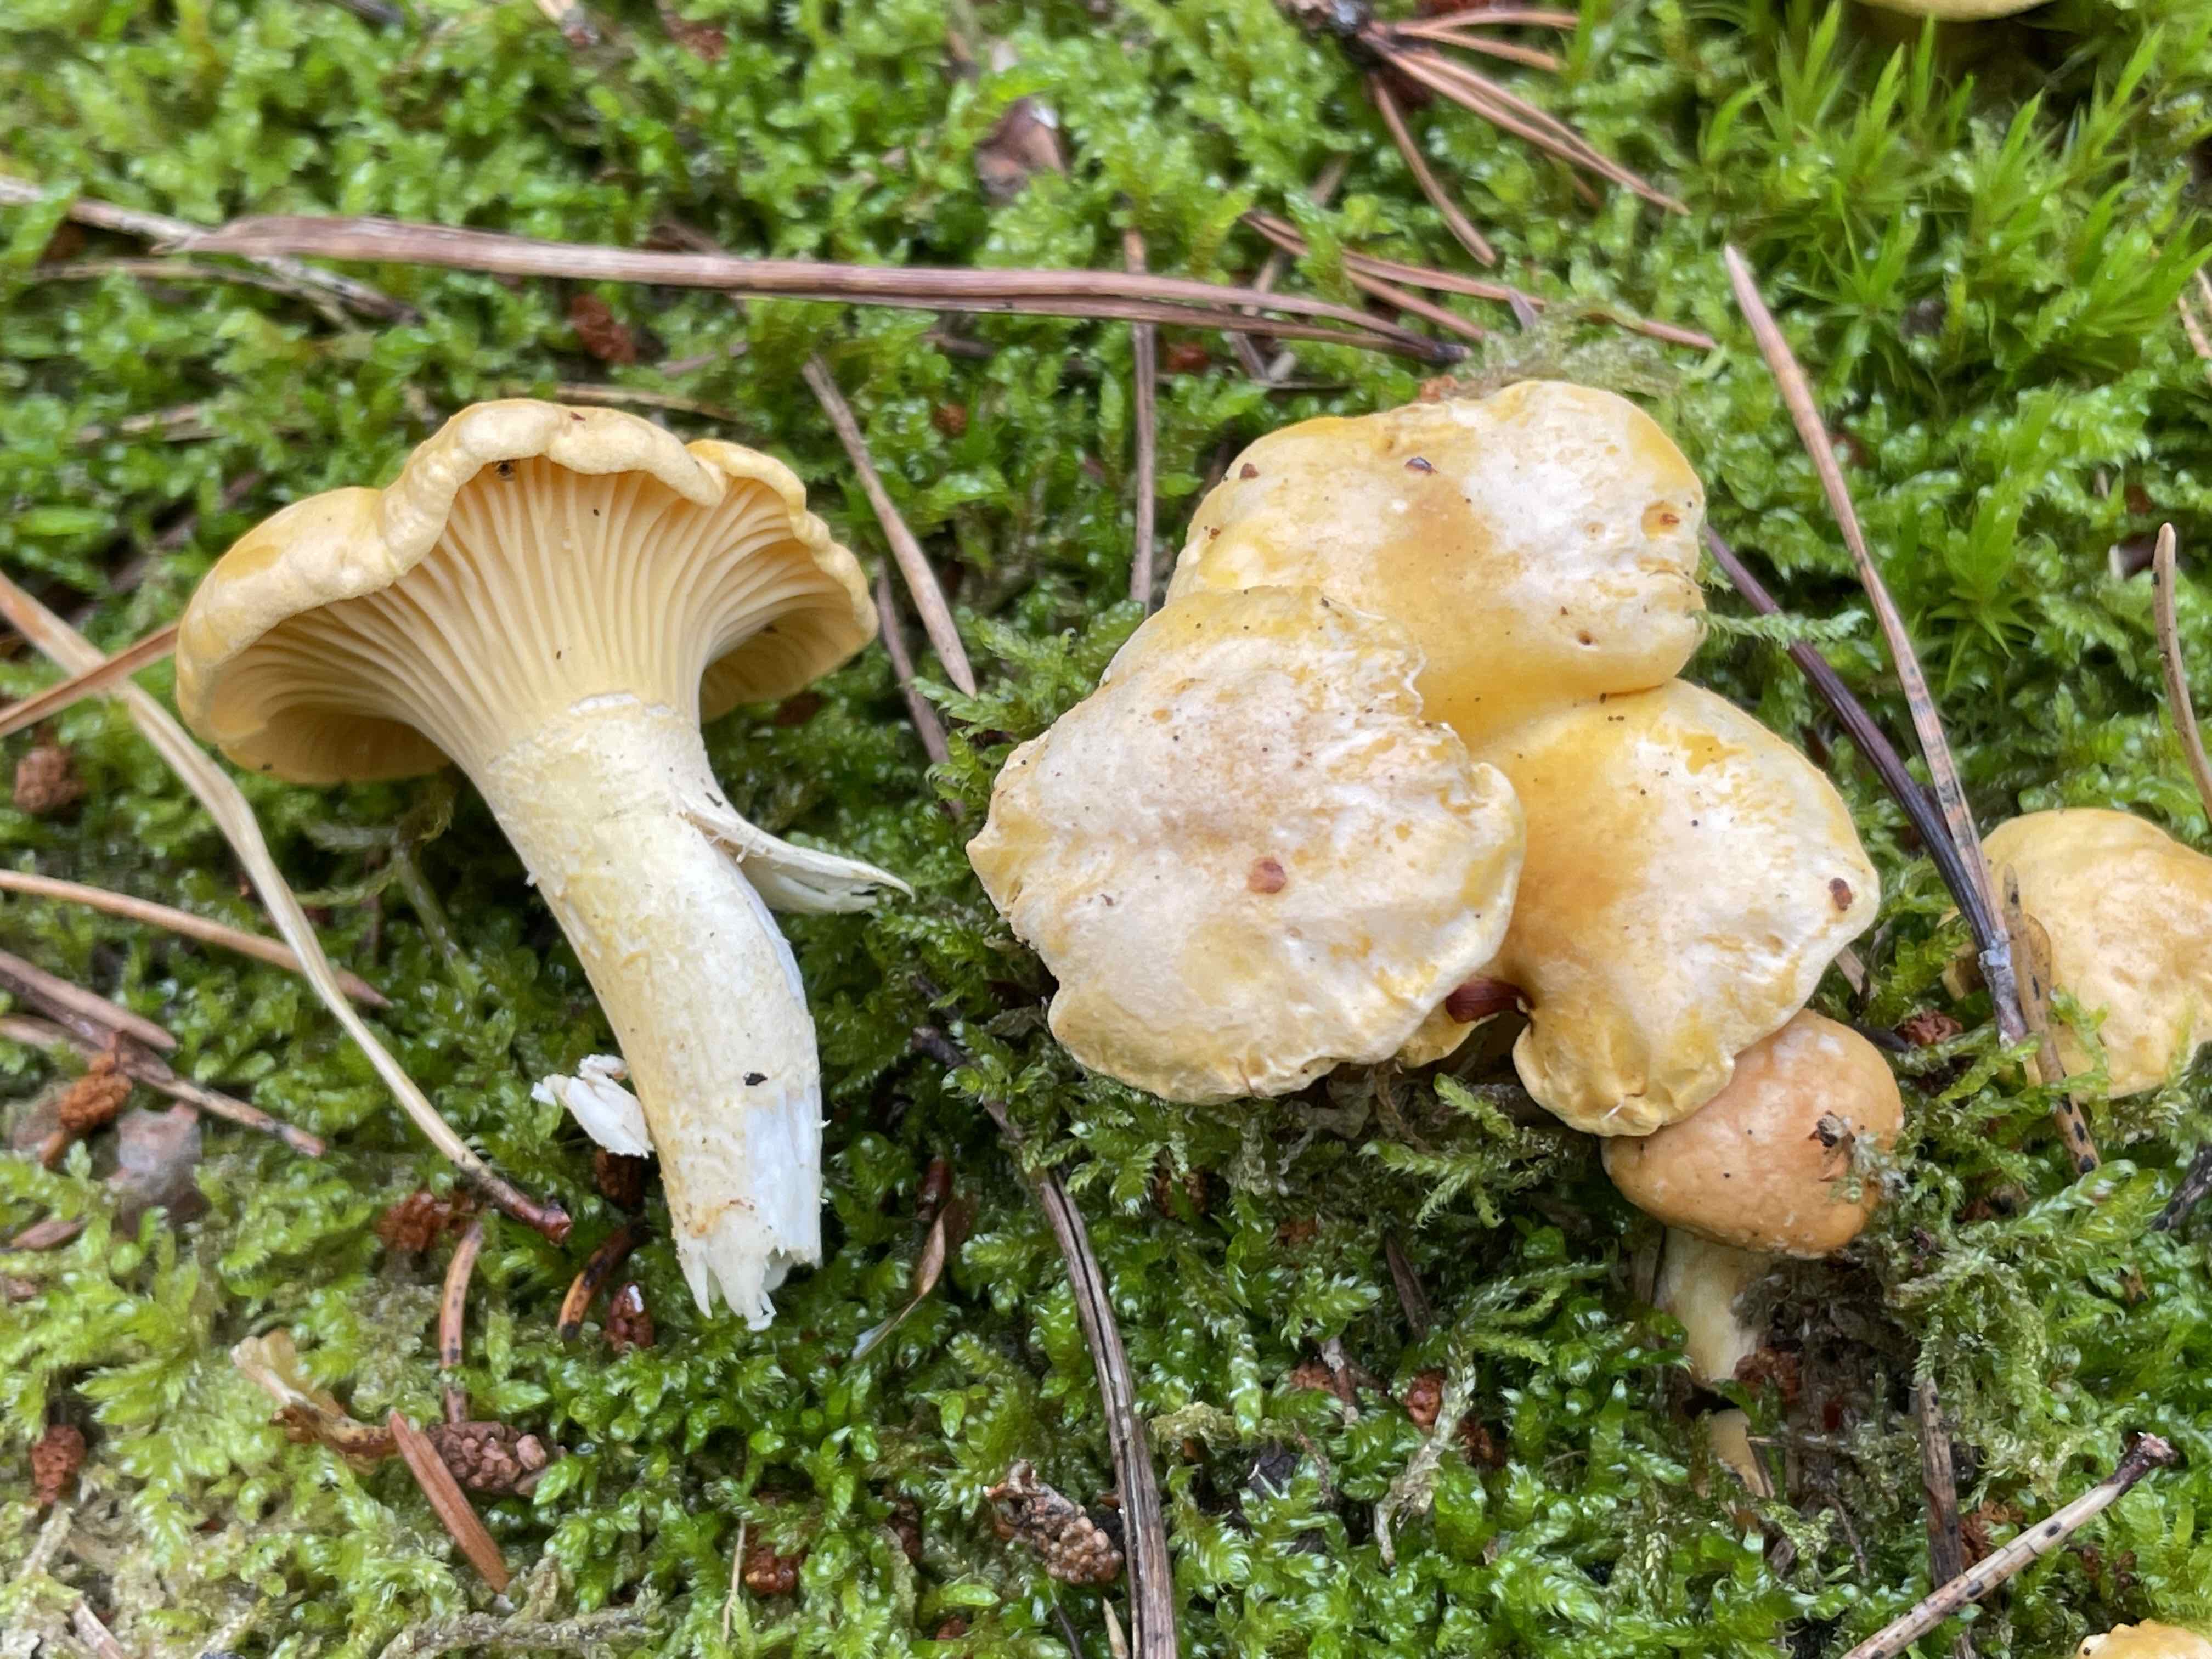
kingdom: Fungi
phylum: Basidiomycota
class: Agaricomycetes
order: Cantharellales
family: Hydnaceae
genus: Cantharellus
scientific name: Cantharellus cibarius
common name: almindelig kantarel
